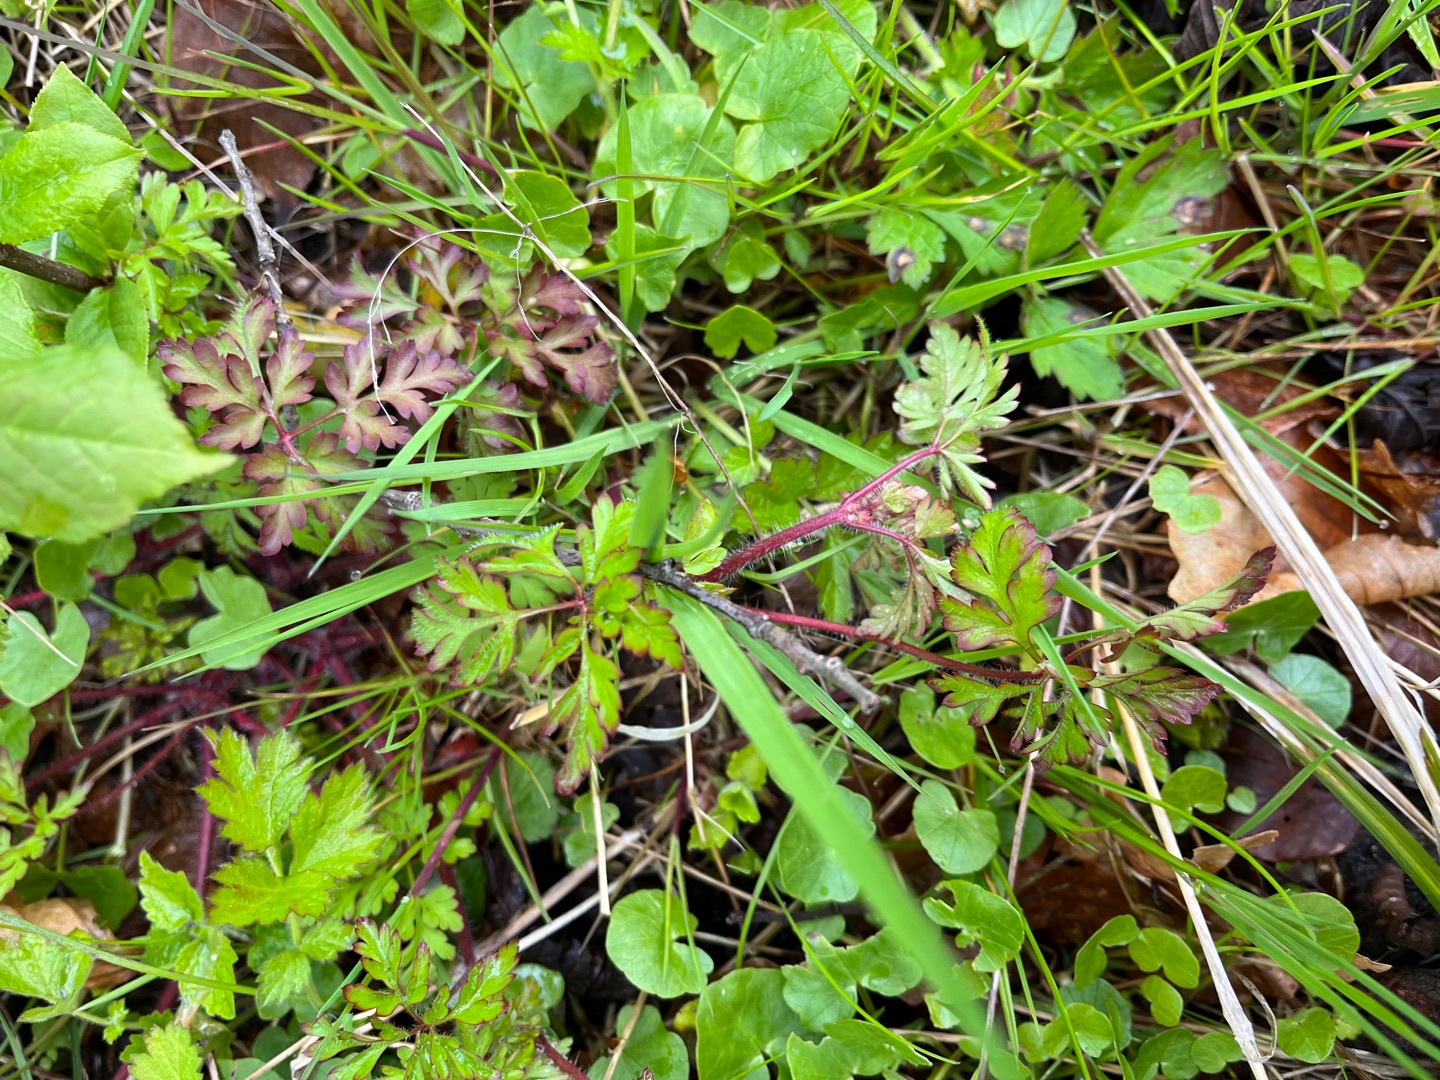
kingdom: Plantae
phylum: Tracheophyta
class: Magnoliopsida
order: Geraniales
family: Geraniaceae
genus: Geranium
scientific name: Geranium robertianum
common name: Stinkende storkenæb
